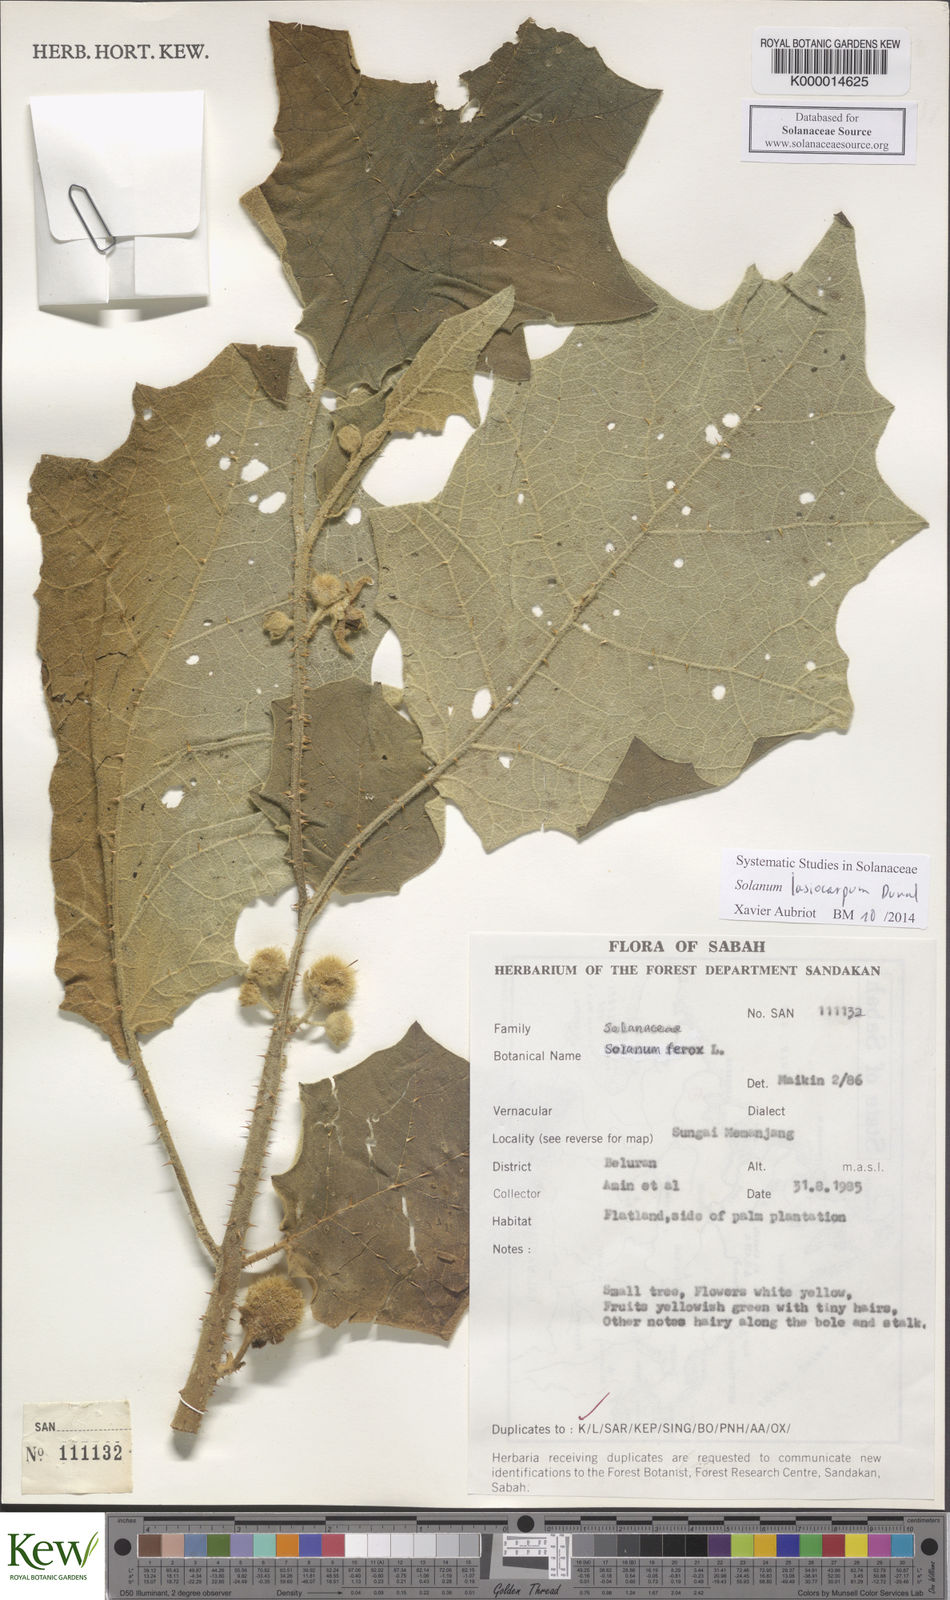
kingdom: Plantae
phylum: Tracheophyta
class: Magnoliopsida
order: Solanales
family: Solanaceae
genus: Solanum
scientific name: Solanum lasiocarpum
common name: Indian nightshade
